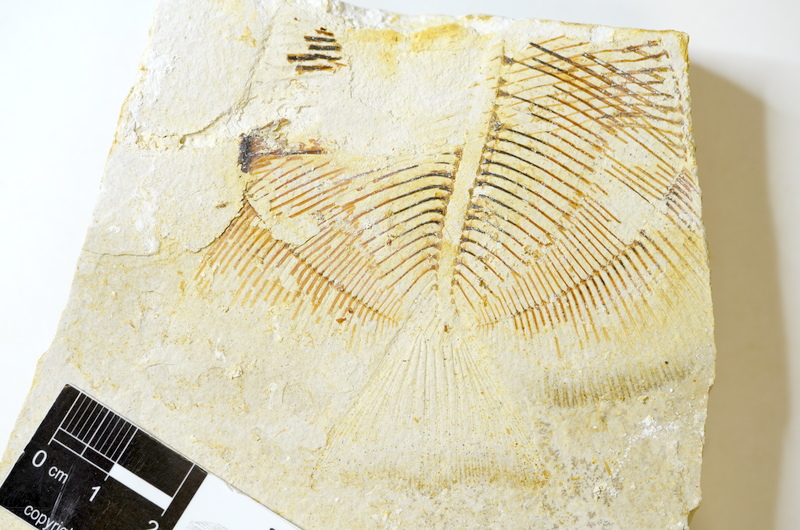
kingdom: Animalia
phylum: Chordata
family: Pycnodontidae
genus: Turbomesodon
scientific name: Turbomesodon relegans
